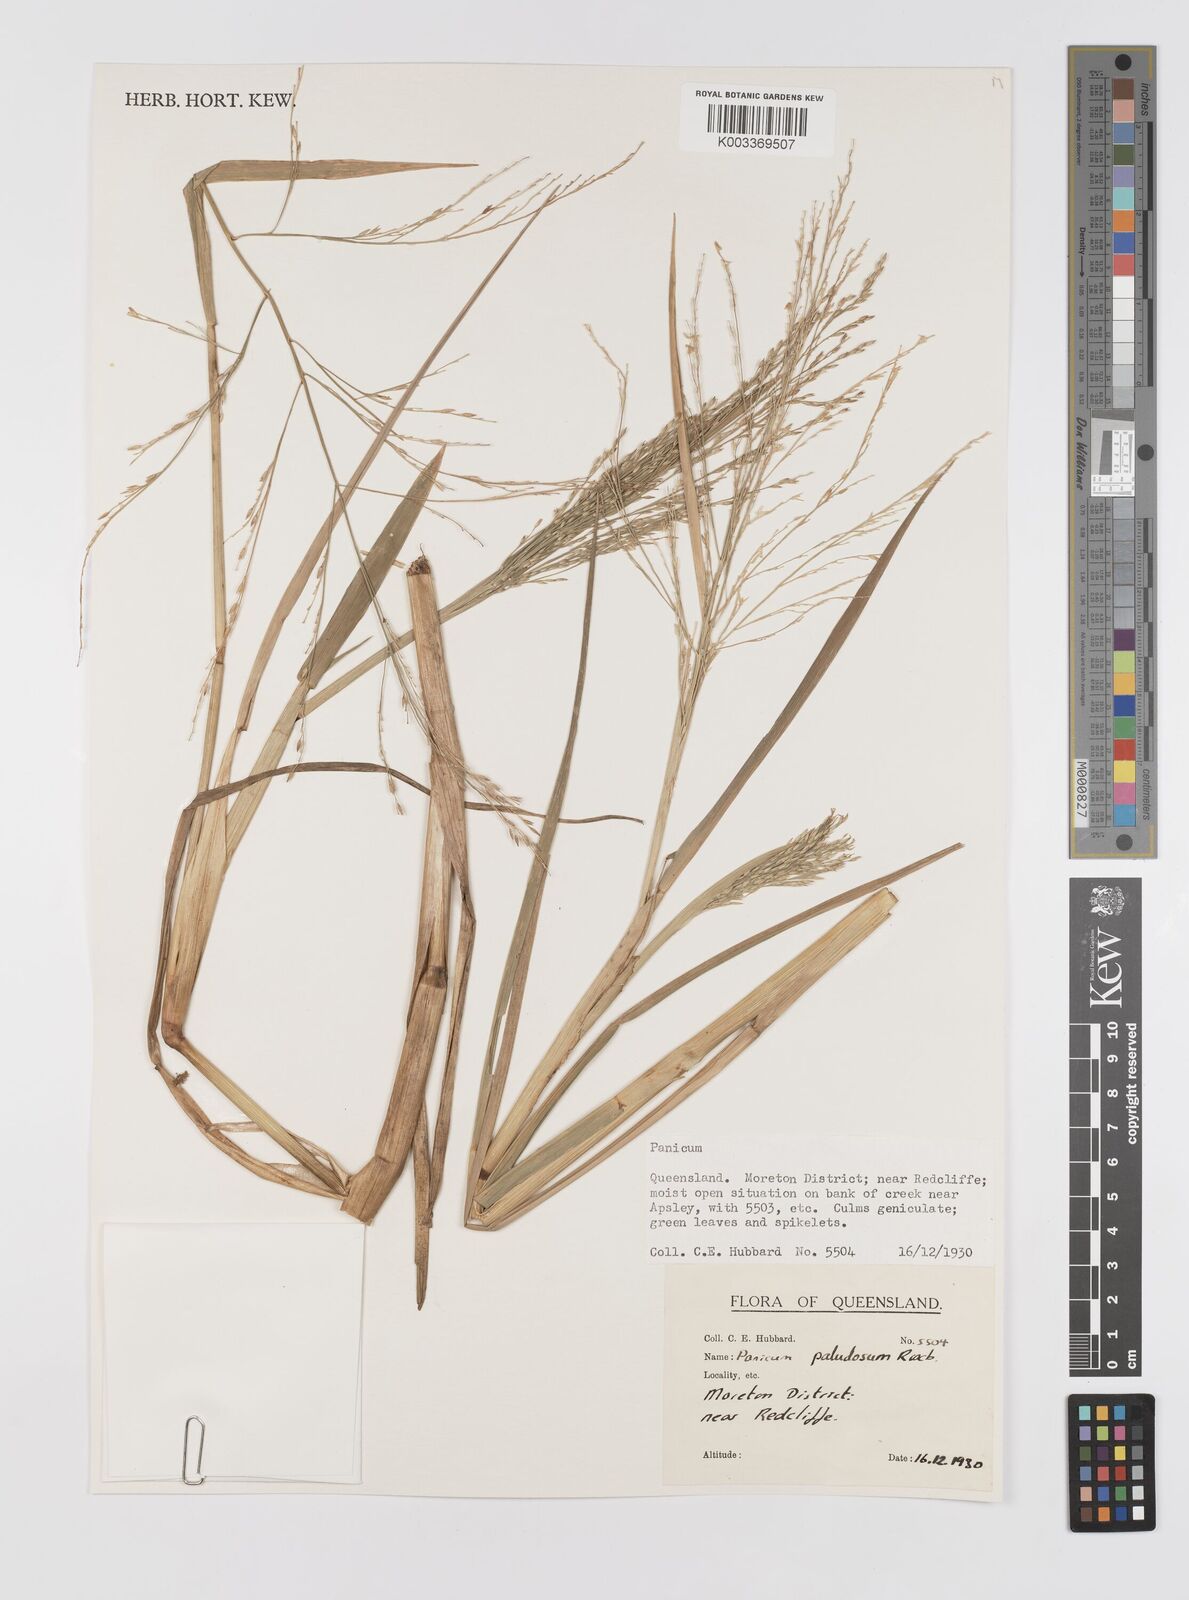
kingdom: Plantae
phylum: Tracheophyta
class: Liliopsida
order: Poales
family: Poaceae
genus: Louisiella
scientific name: Louisiella paludosa
